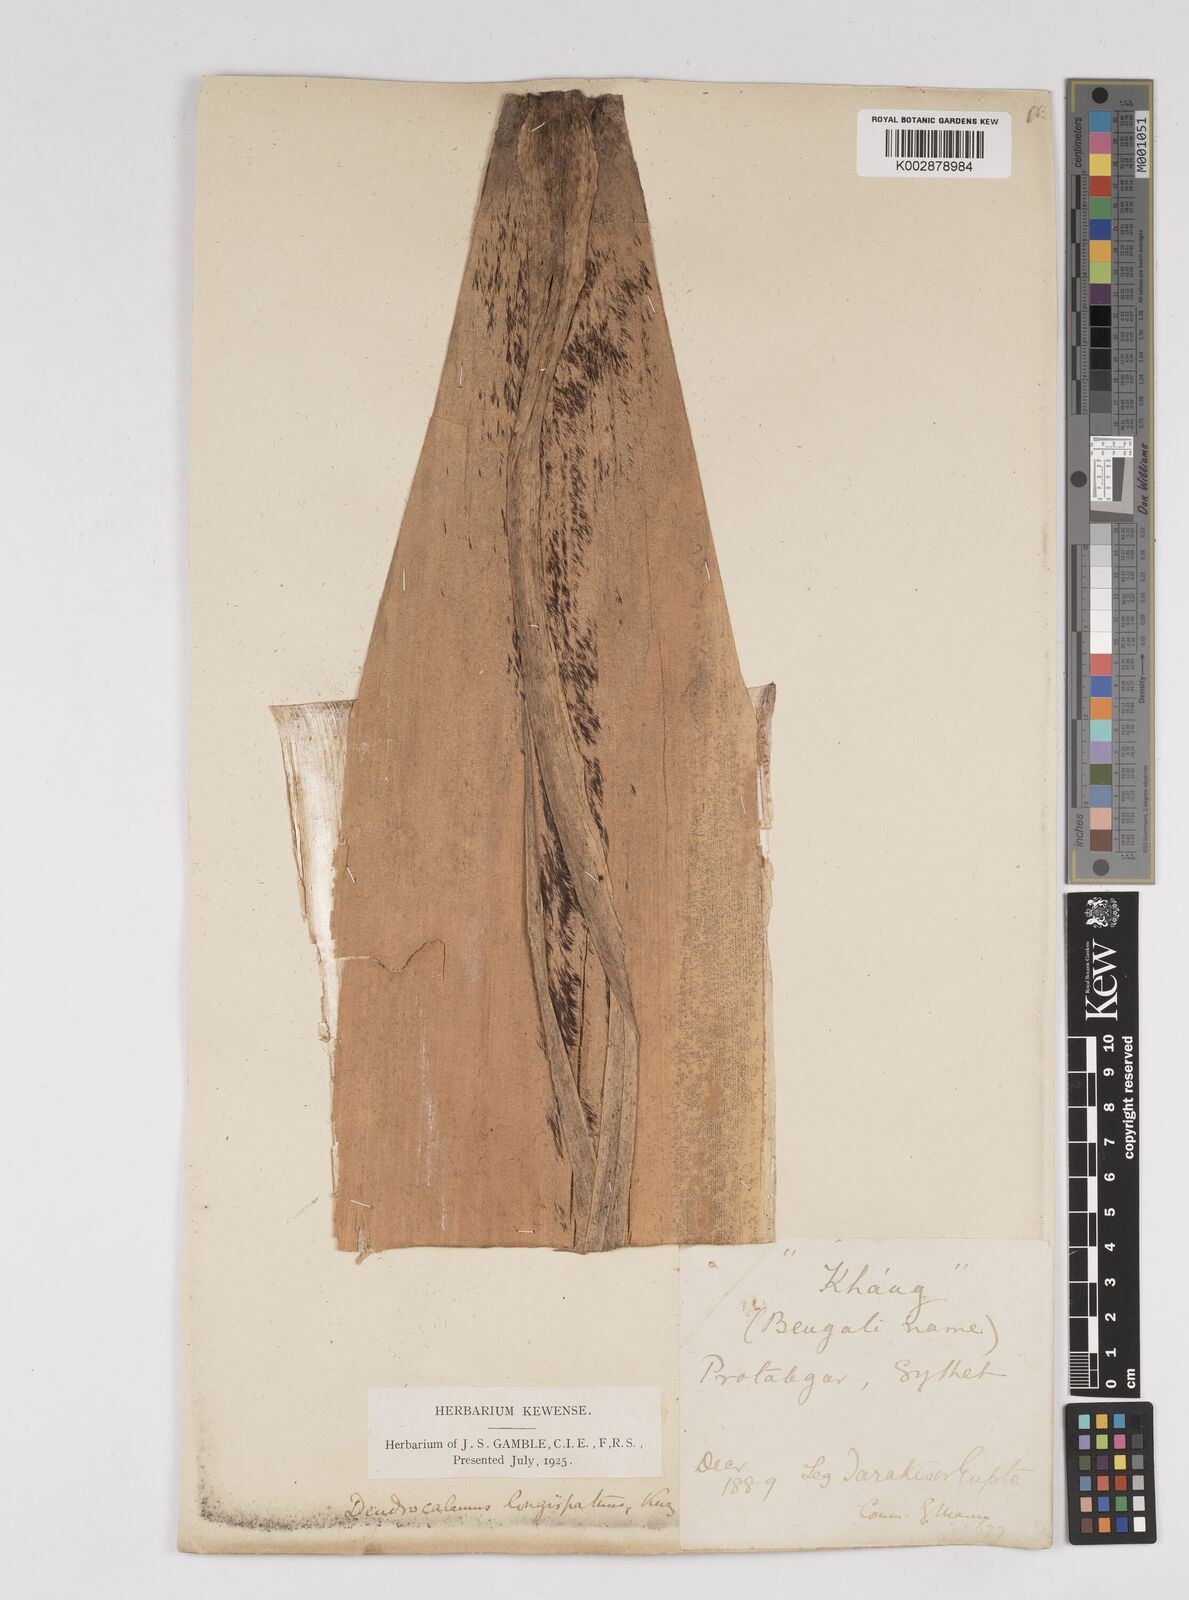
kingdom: Plantae
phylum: Tracheophyta
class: Liliopsida
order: Poales
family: Poaceae
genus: Dendrocalamus
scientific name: Dendrocalamus longispathus
